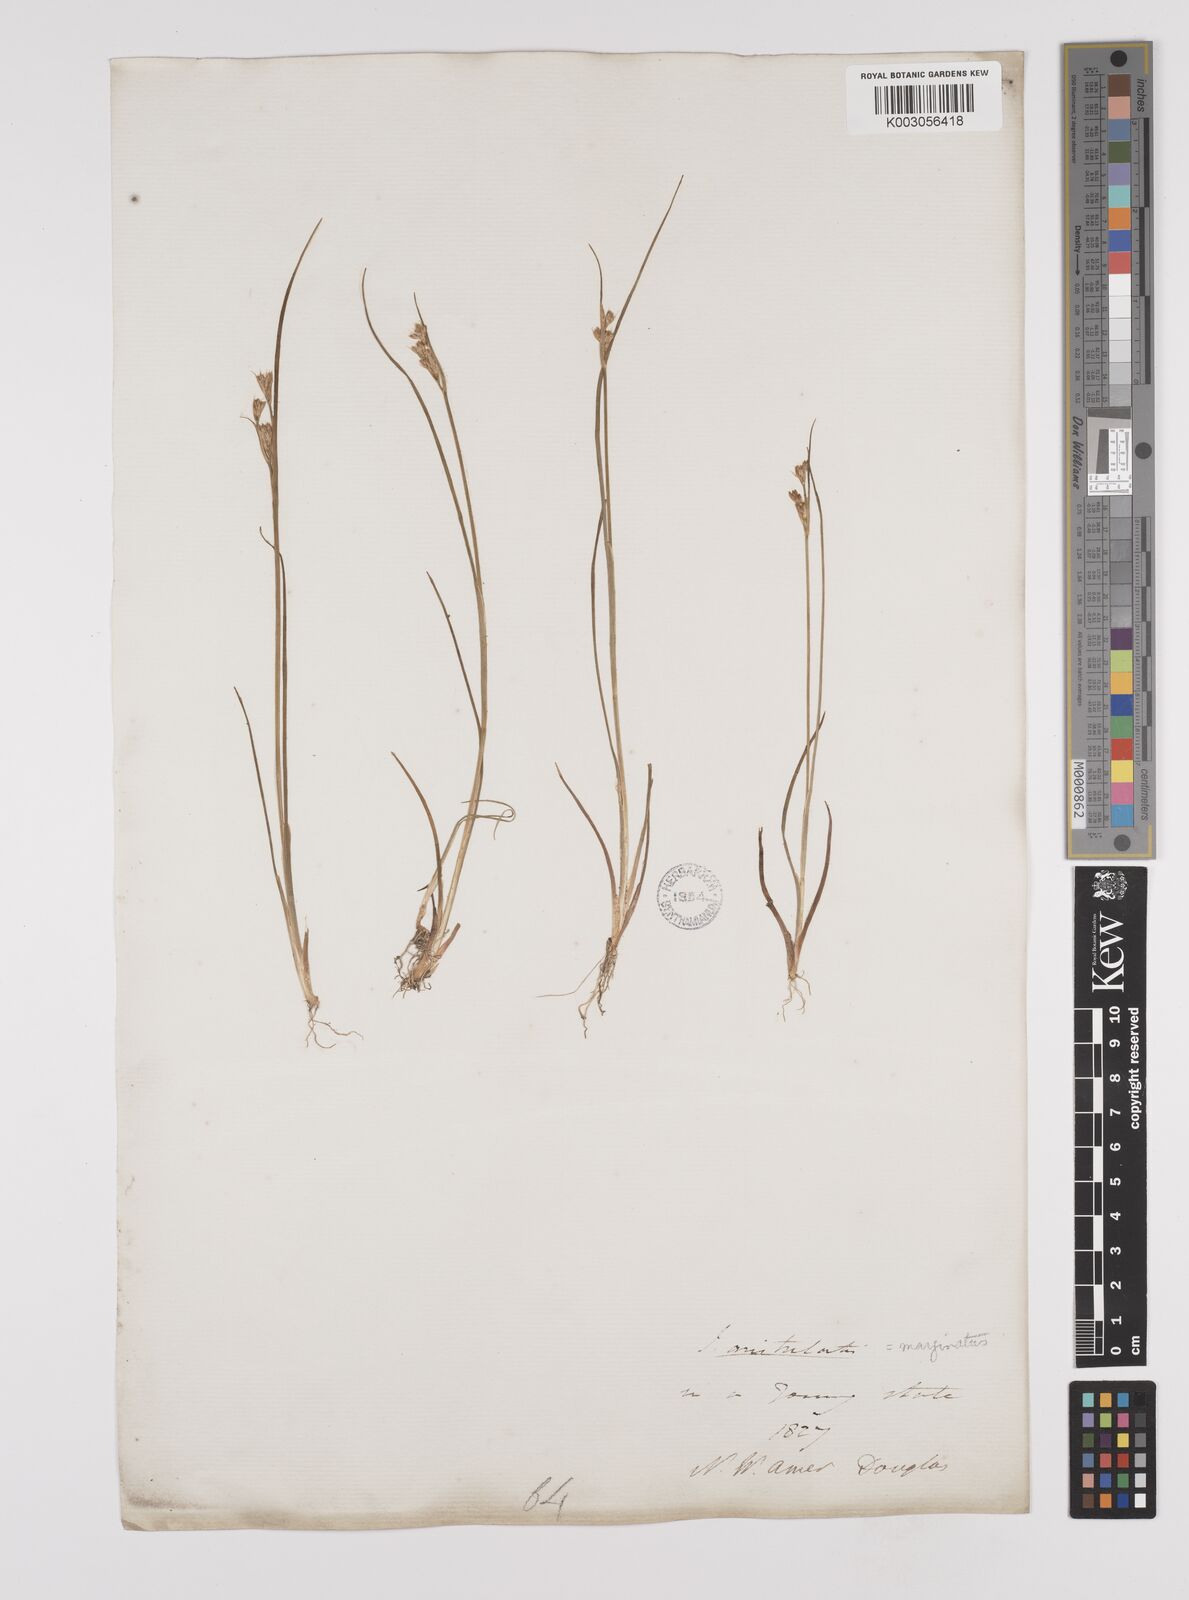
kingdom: Plantae
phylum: Tracheophyta
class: Liliopsida
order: Poales
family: Juncaceae
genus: Juncus
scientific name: Juncus tenuis
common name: Slender rush
